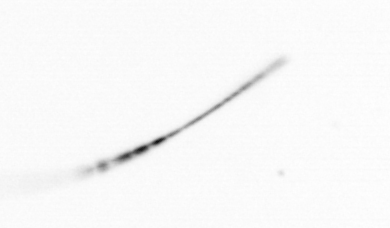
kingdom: Chromista
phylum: Ochrophyta
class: Bacillariophyceae
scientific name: Bacillariophyceae
